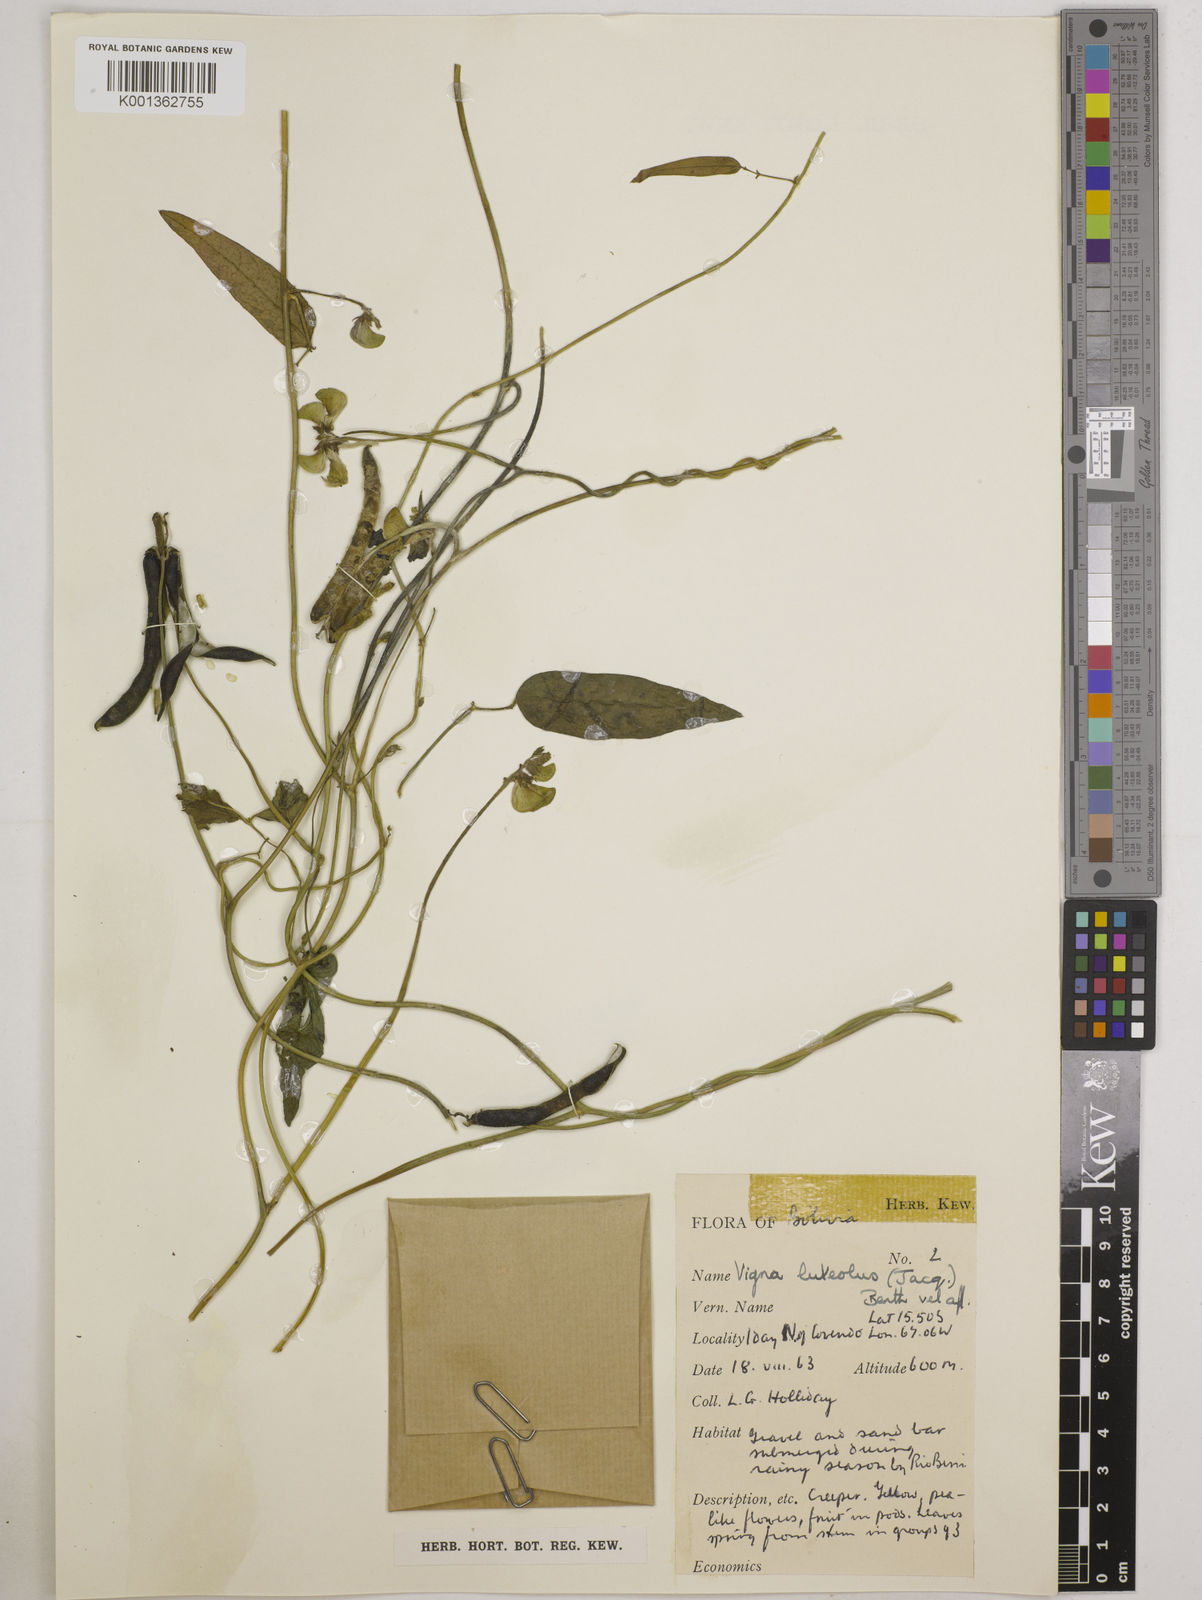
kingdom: Plantae
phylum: Tracheophyta
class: Magnoliopsida
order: Fabales
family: Fabaceae
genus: Vigna
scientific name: Vigna luteola
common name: Hairypod cowpea
